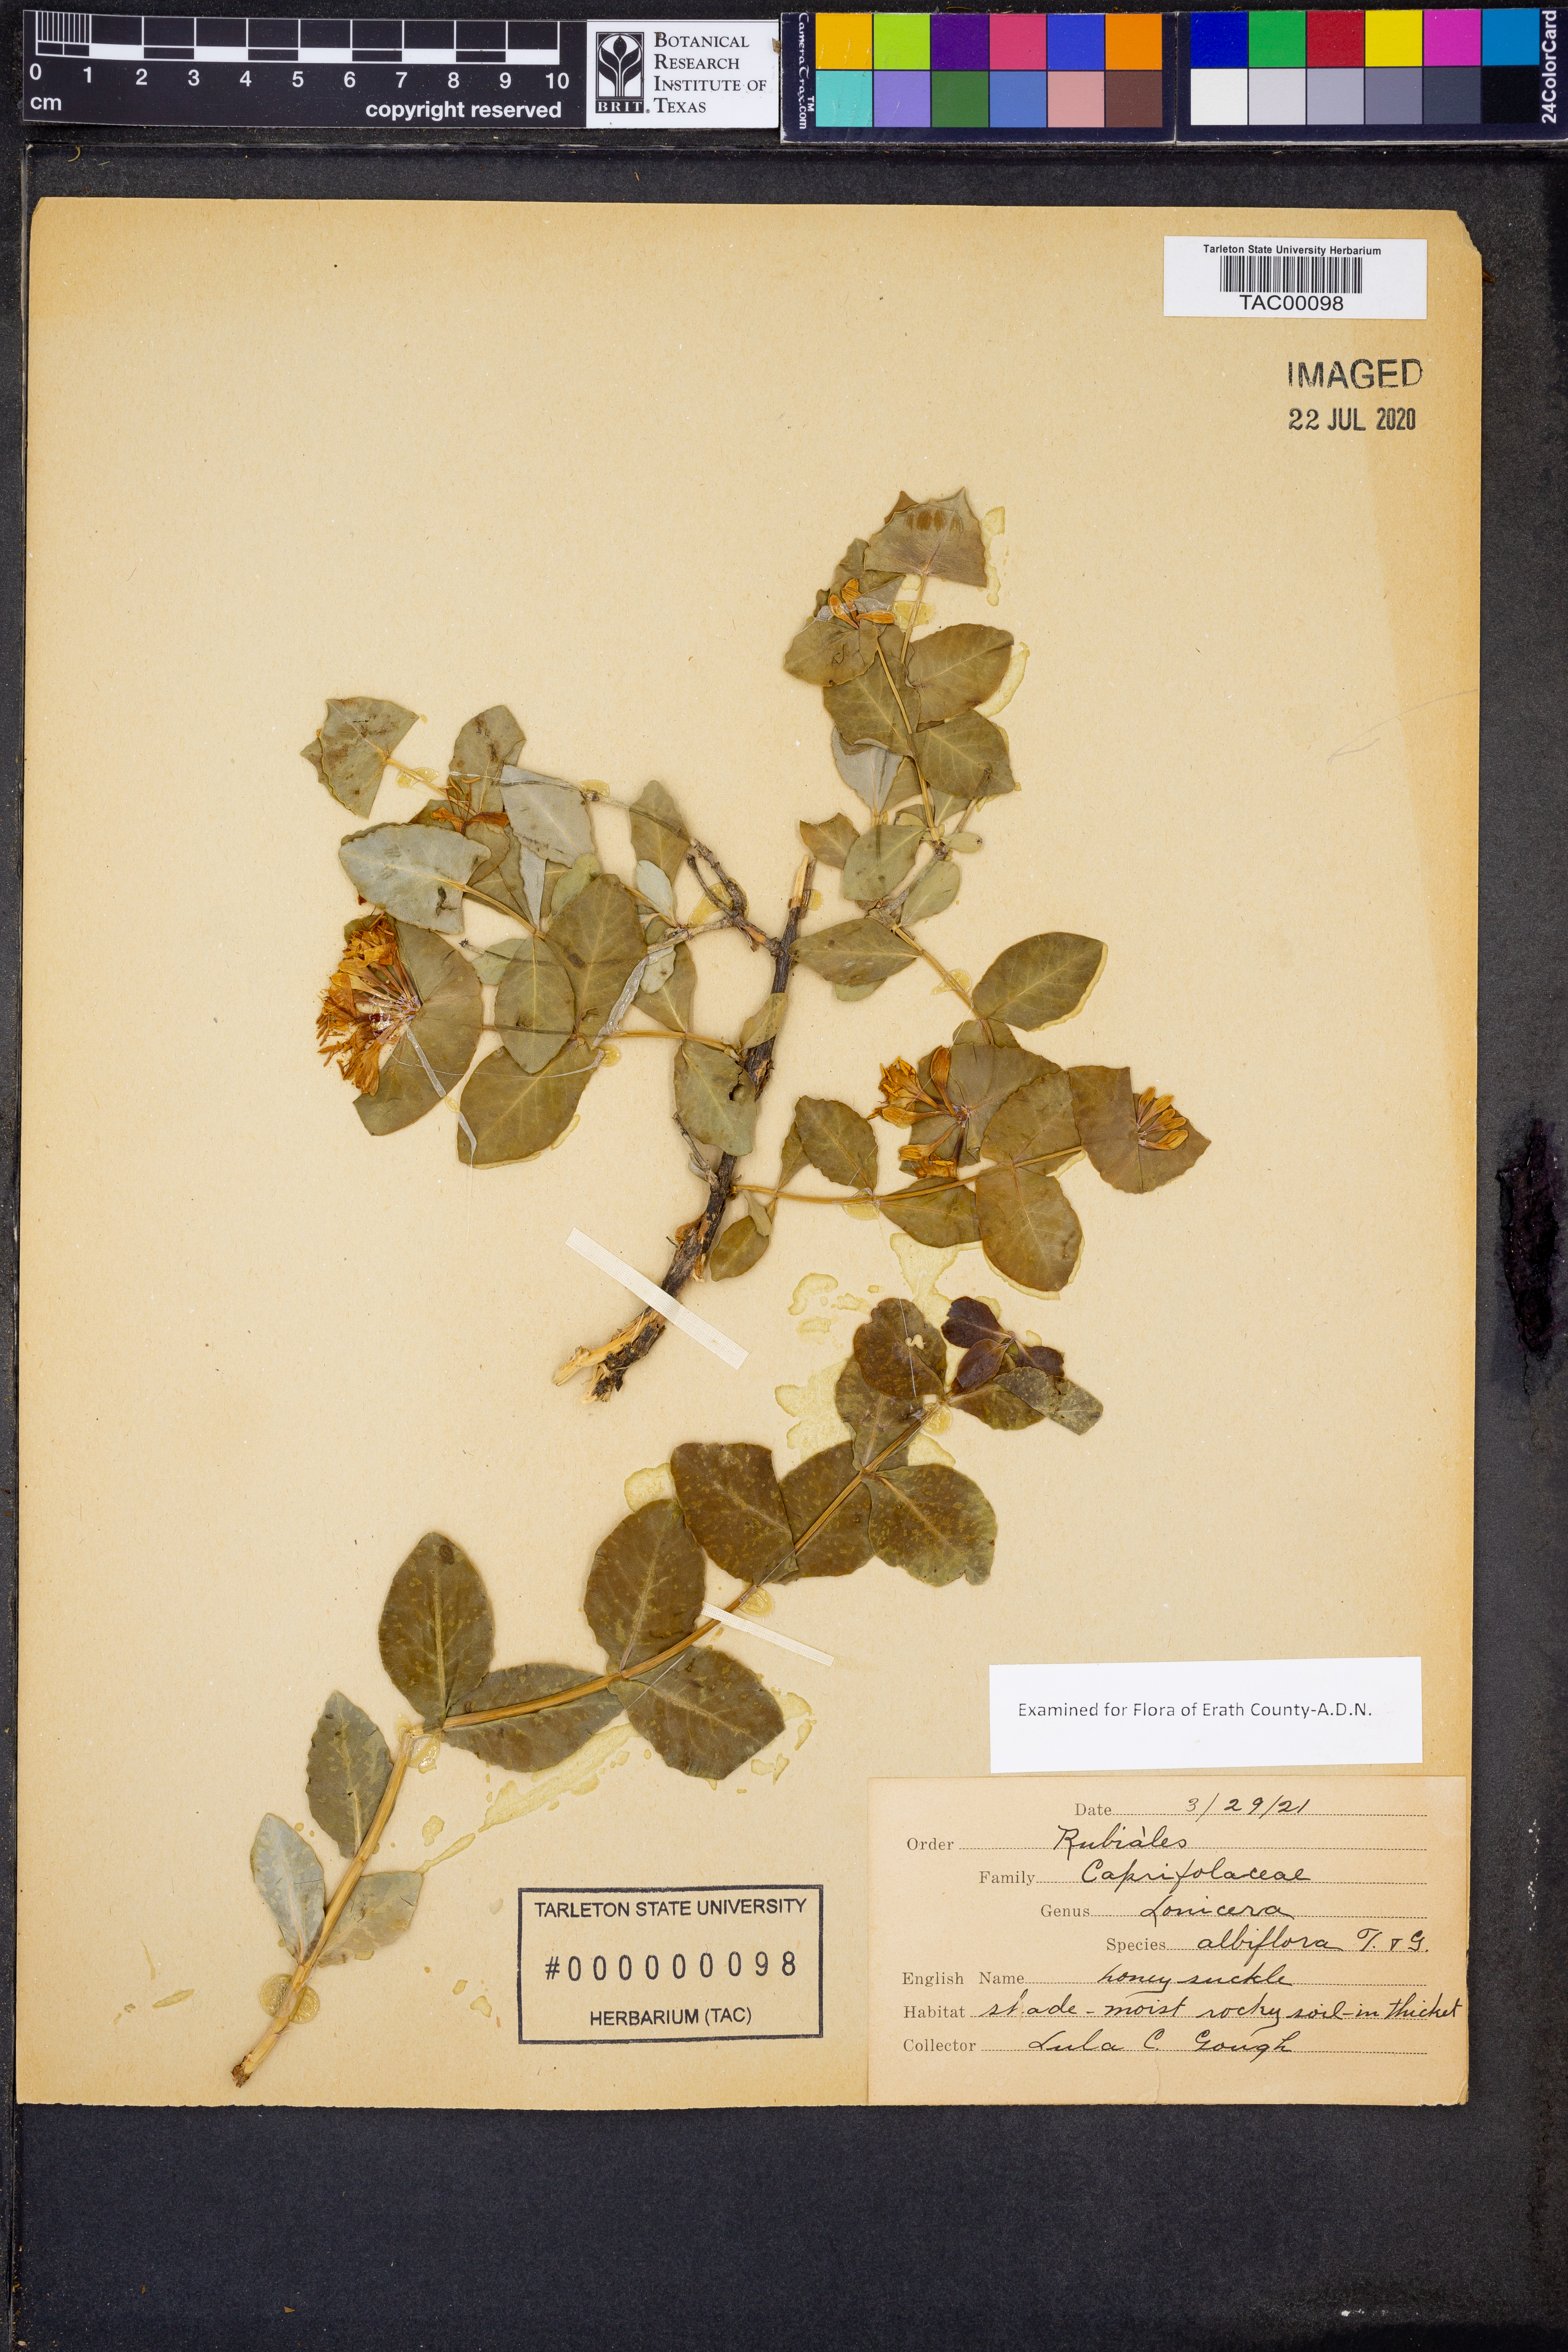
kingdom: Plantae
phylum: Tracheophyta
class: Magnoliopsida
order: Dipsacales
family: Caprifoliaceae
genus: Lonicera
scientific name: Lonicera albiflora
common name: White honeysuckle
